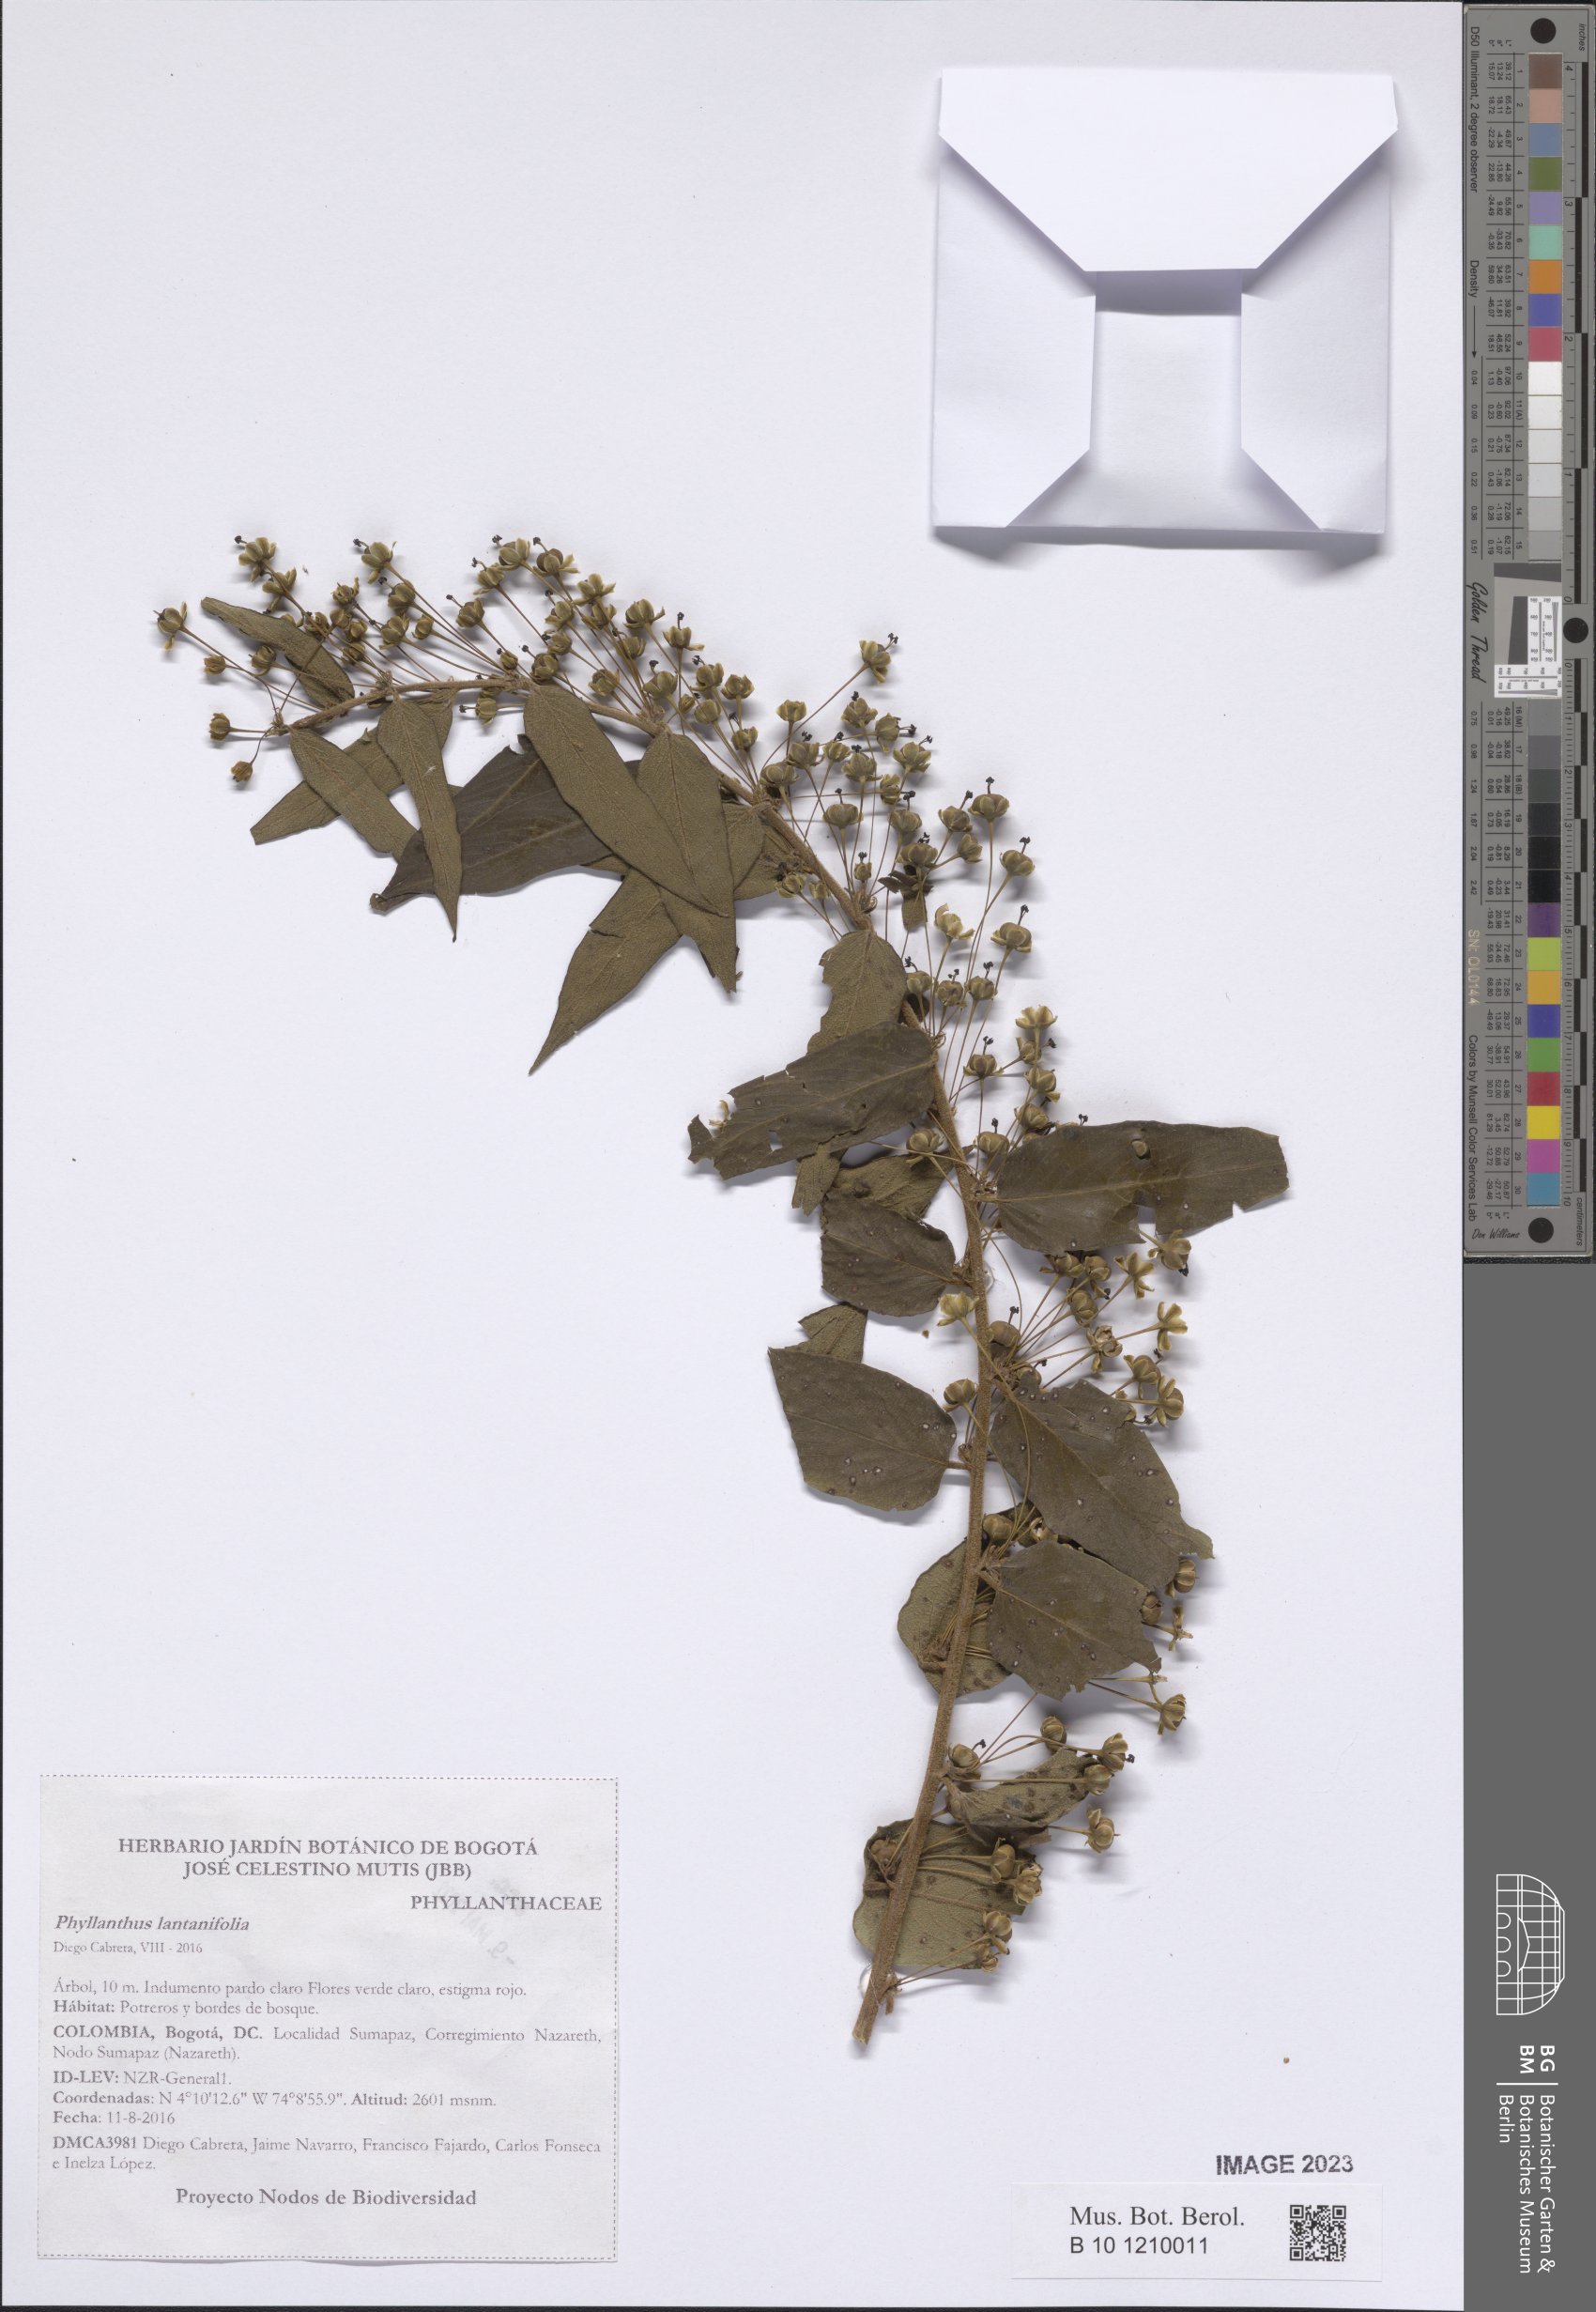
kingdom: Plantae
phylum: Tracheophyta
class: Magnoliopsida
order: Malpighiales
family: Phyllanthaceae
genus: Phyllanthus
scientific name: Phyllanthus
